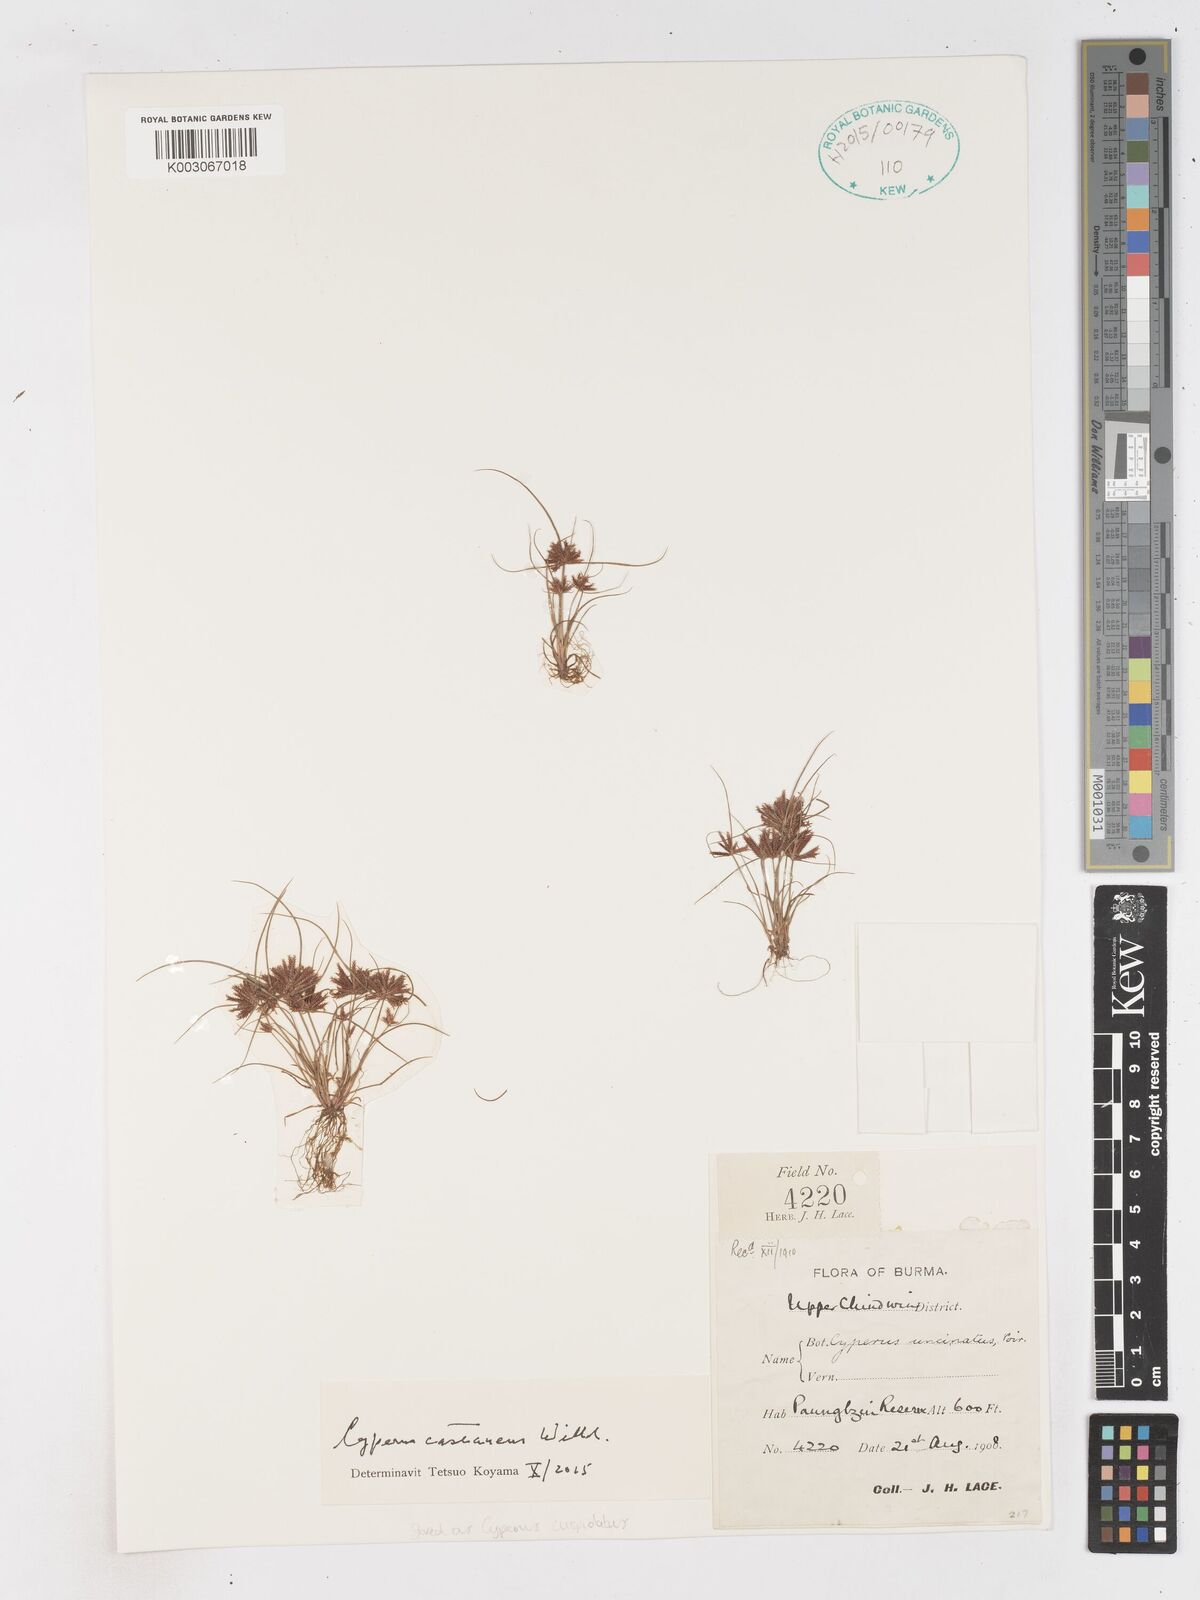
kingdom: Plantae
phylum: Tracheophyta
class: Liliopsida
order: Poales
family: Cyperaceae
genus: Cyperus
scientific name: Cyperus castaneus
